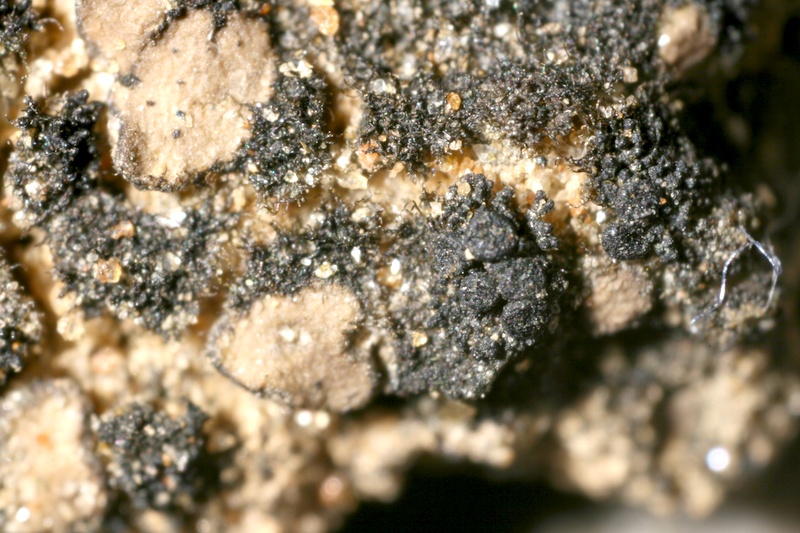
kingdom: Fungi
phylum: Ascomycota
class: Lichinomycetes
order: Lichinales
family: Lichinaceae
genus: Lichinella
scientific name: Lichinella stipatula
